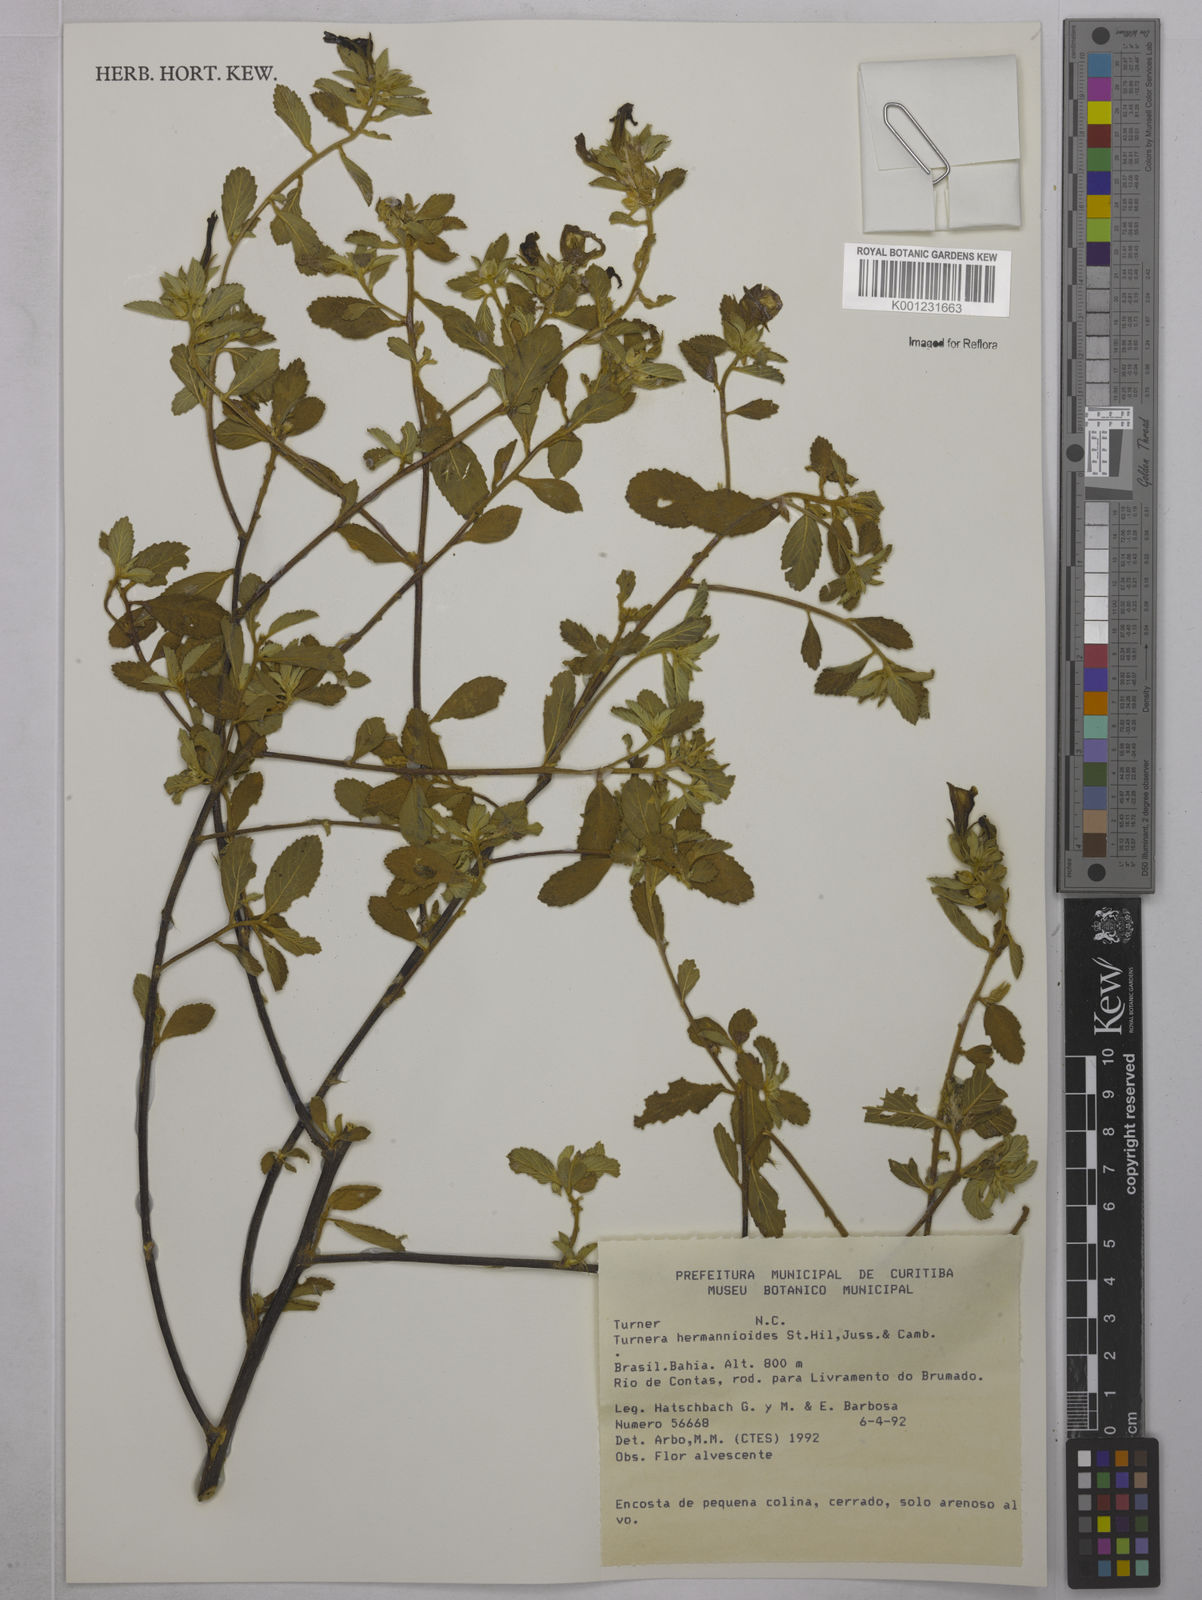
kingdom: Plantae
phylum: Tracheophyta
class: Magnoliopsida
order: Malpighiales
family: Turneraceae
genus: Turnera
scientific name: Turnera hermannioides
